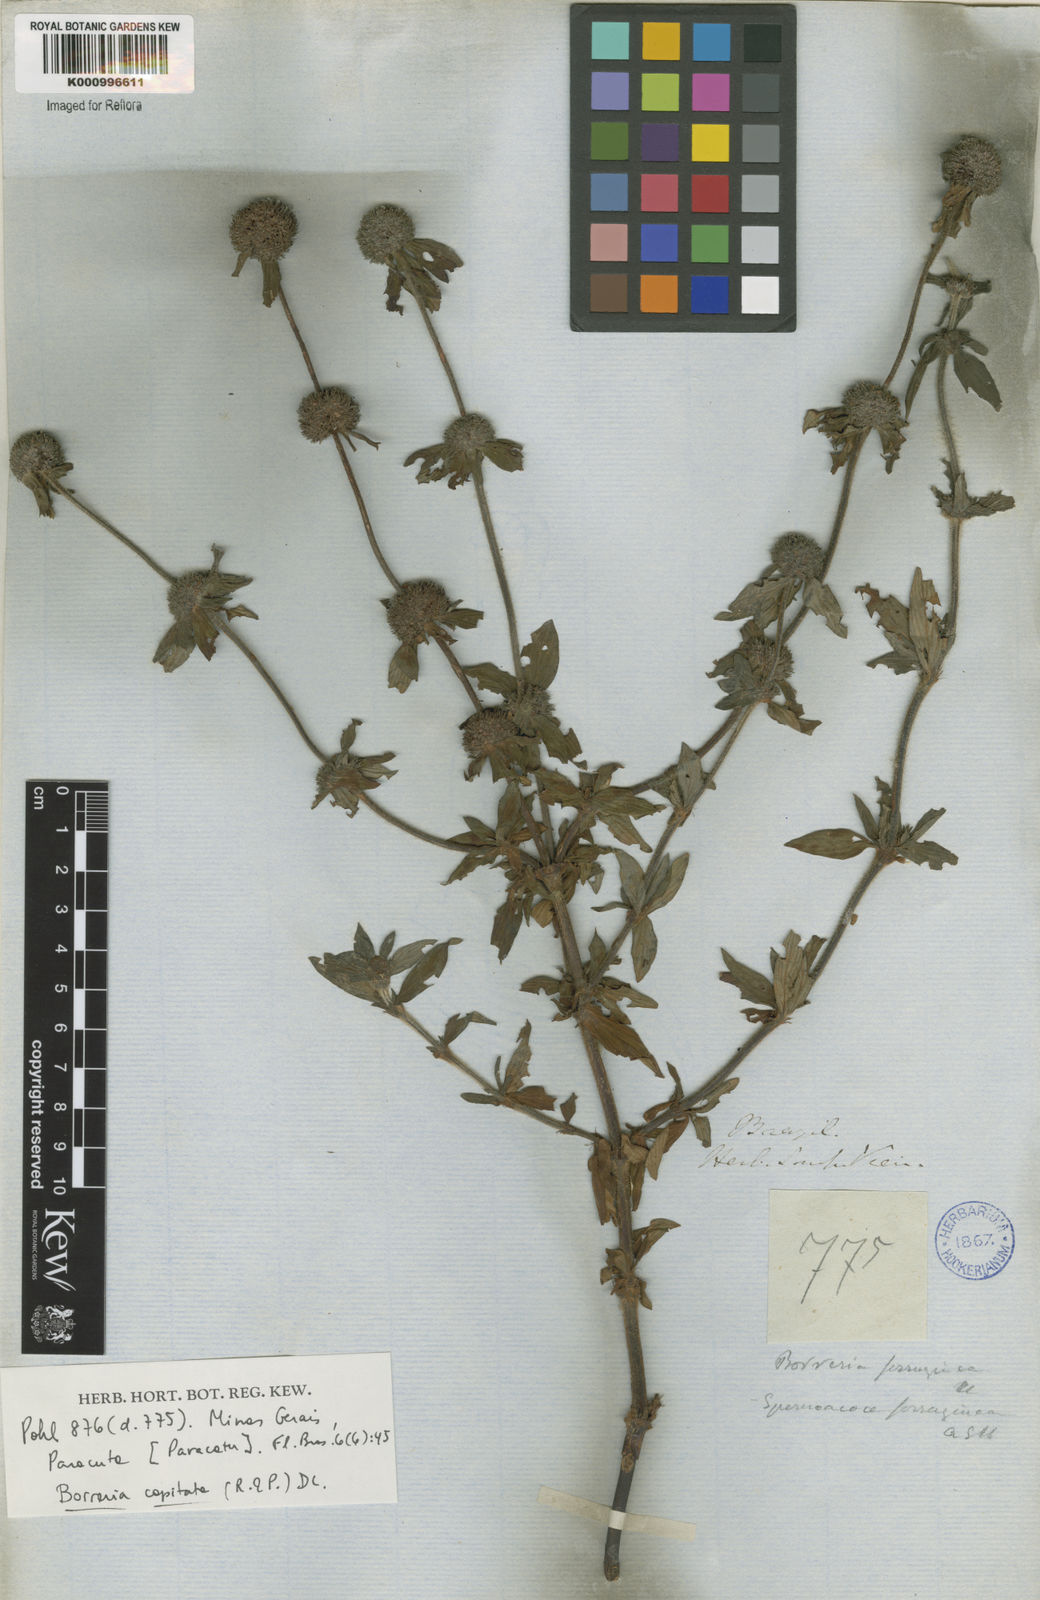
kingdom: Plantae
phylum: Tracheophyta
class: Magnoliopsida
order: Gentianales
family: Rubiaceae
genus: Spermacoce
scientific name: Spermacoce capitata
